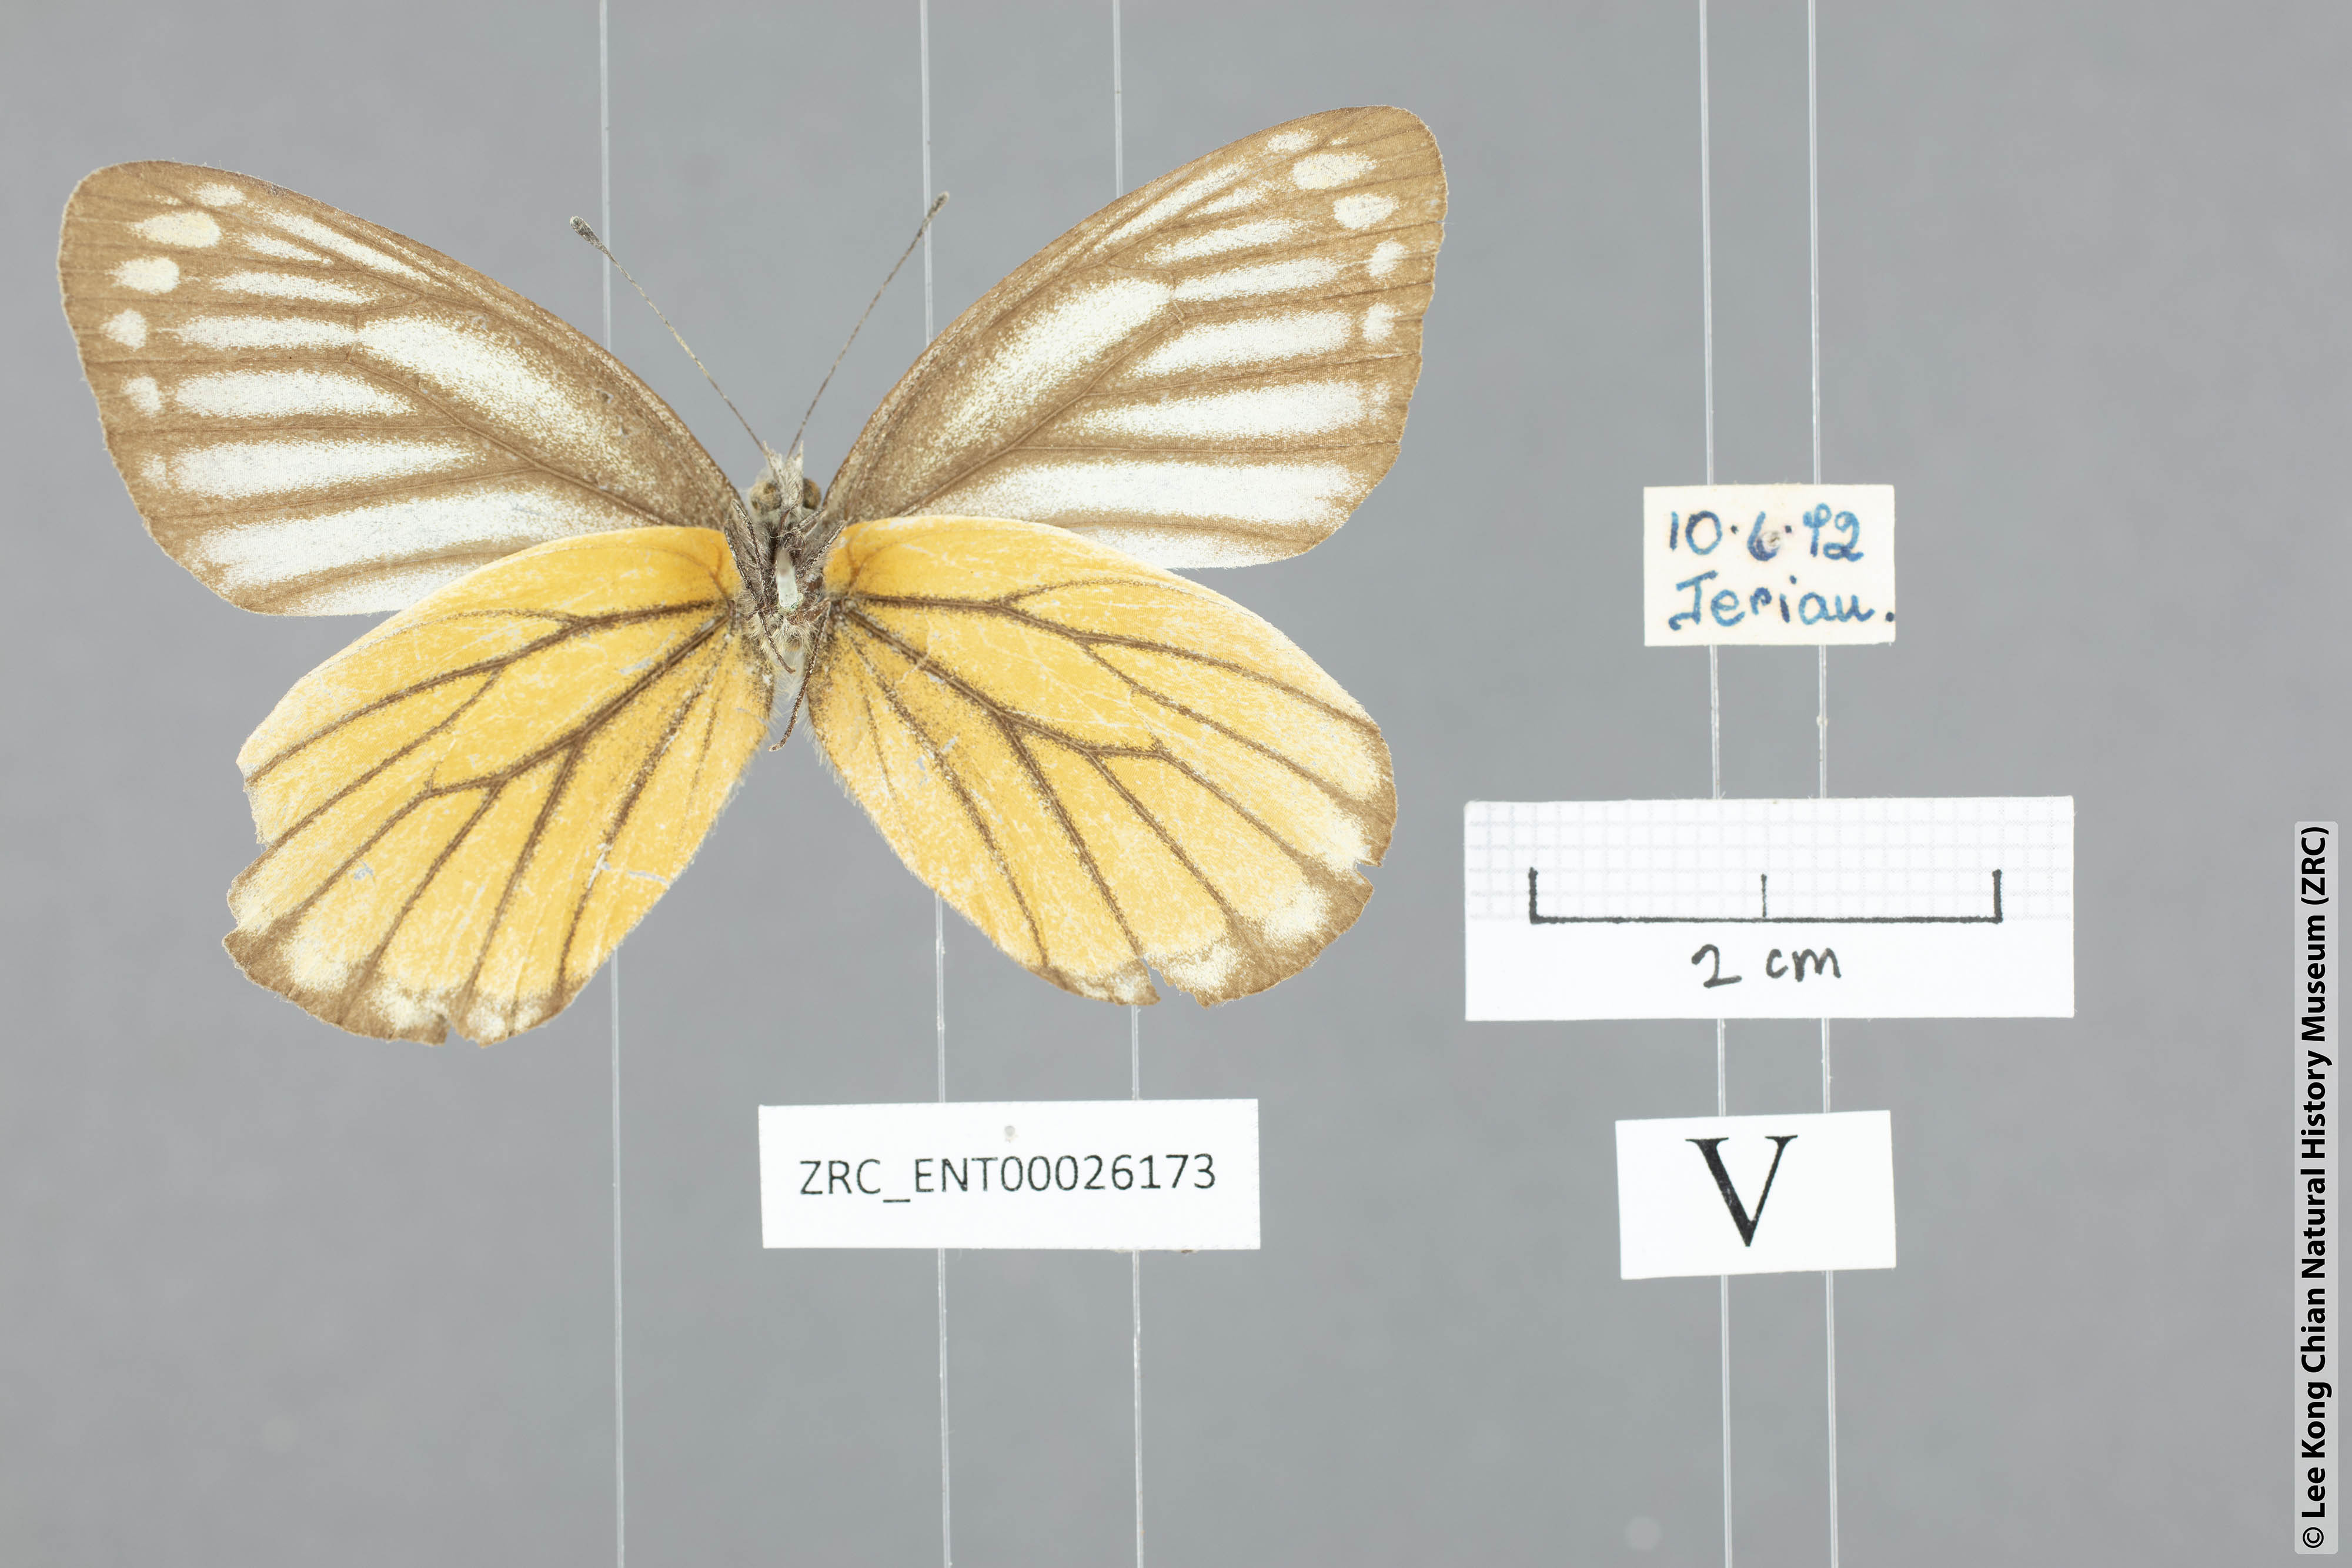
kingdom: Animalia
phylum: Arthropoda
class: Insecta
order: Lepidoptera
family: Pieridae
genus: Delias
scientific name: Delias baracasa
